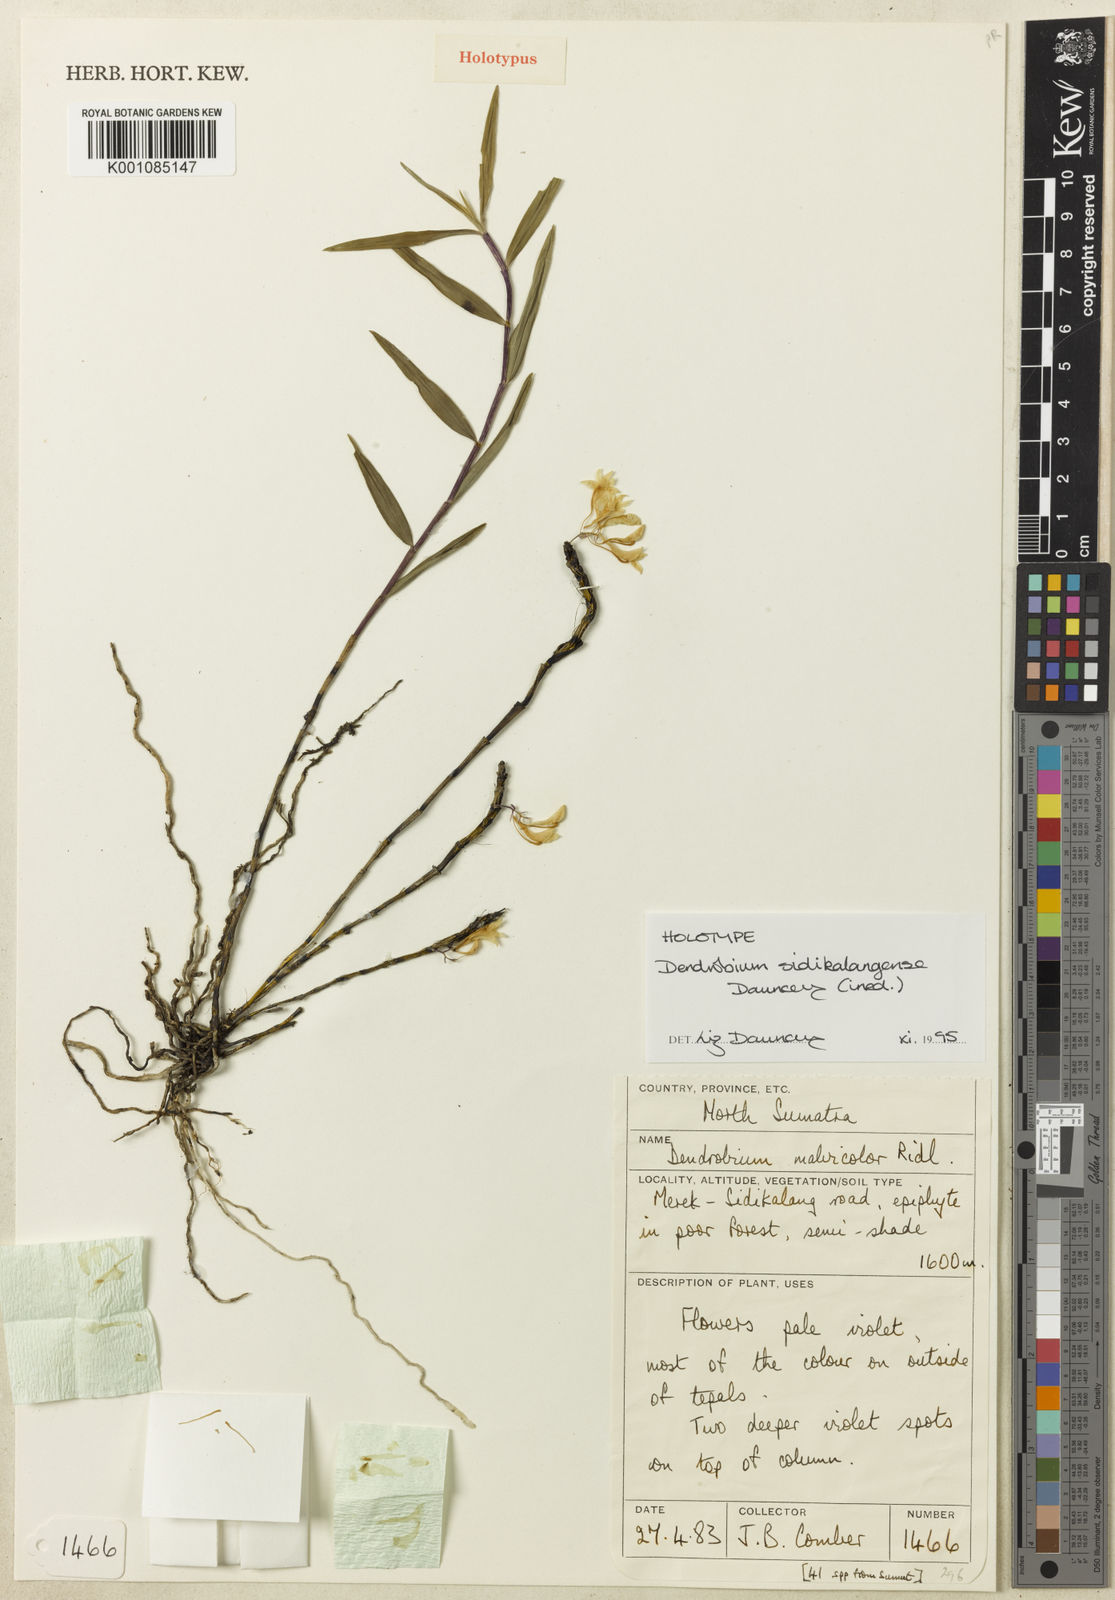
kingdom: Plantae
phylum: Tracheophyta
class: Liliopsida
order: Asparagales
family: Orchidaceae
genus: Dendrobium
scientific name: Dendrobium sidikalangense
